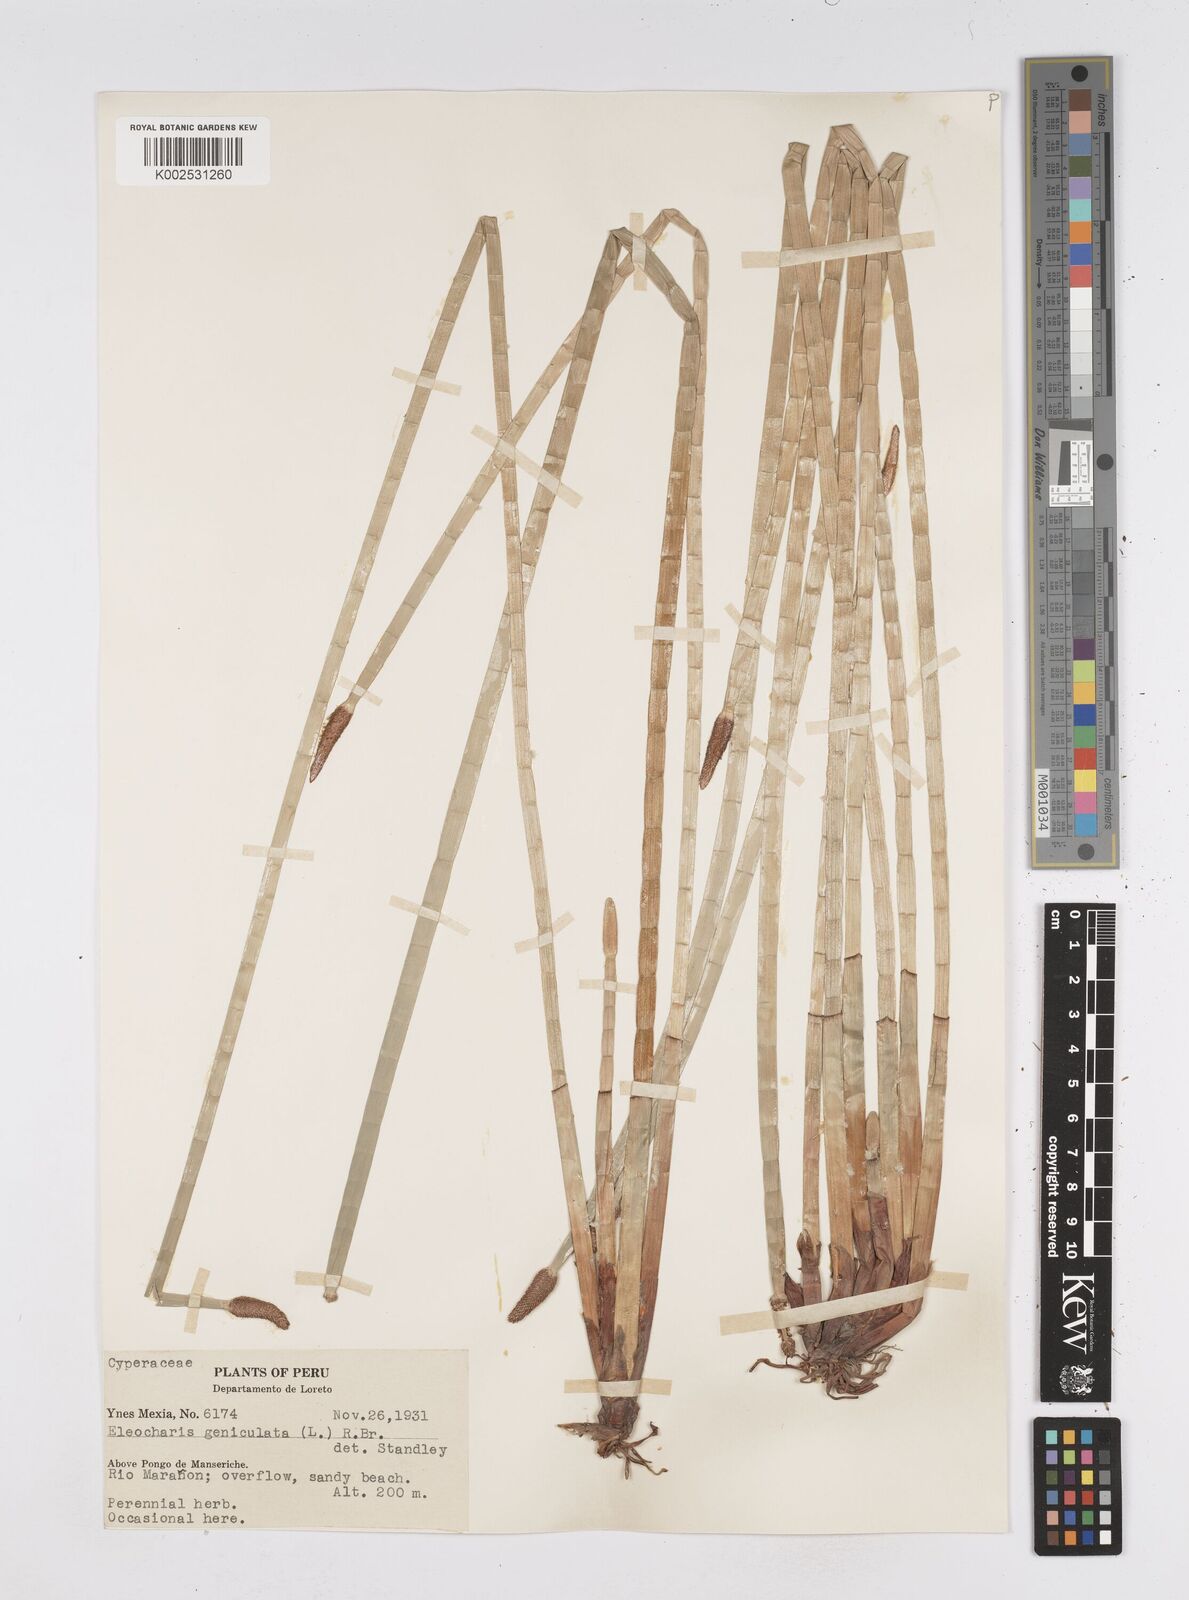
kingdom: Plantae
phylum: Tracheophyta
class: Liliopsida
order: Poales
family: Cyperaceae
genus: Eleocharis
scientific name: Eleocharis elegans
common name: Elegant spike-rush
